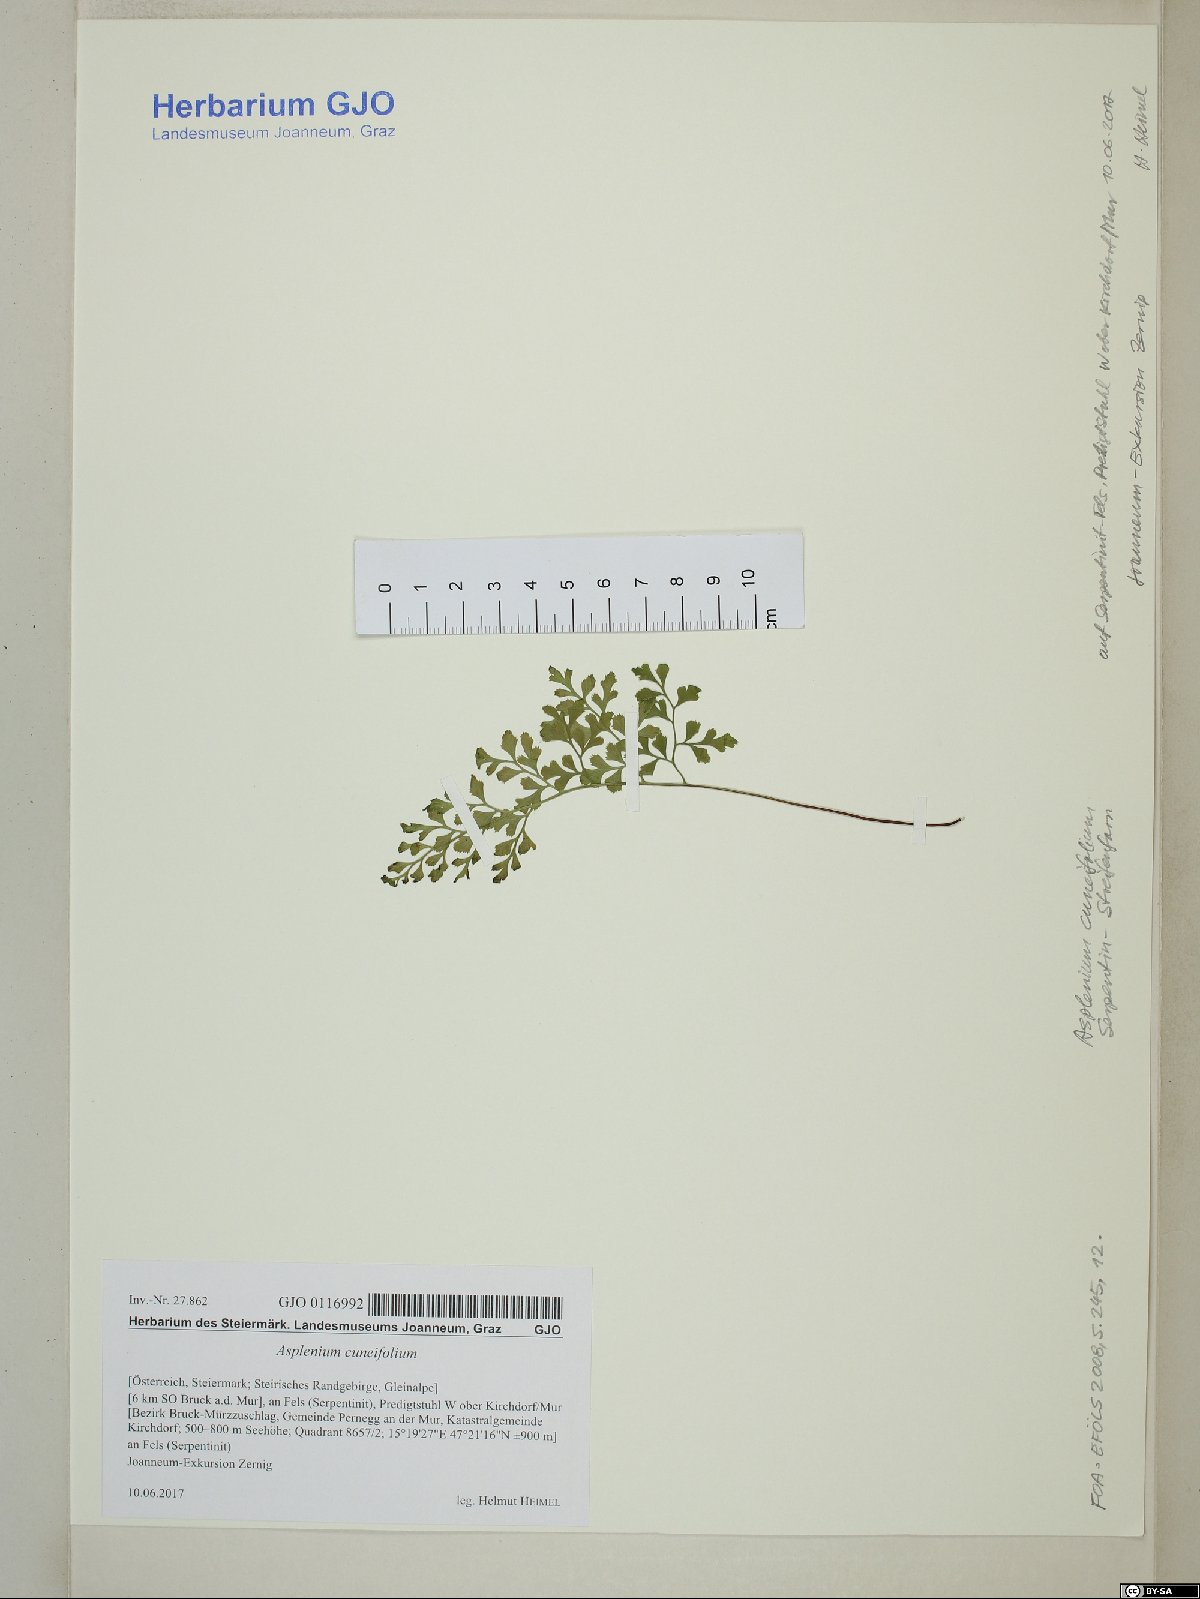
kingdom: Plantae
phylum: Tracheophyta
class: Polypodiopsida
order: Polypodiales
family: Aspleniaceae
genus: Asplenium
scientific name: Asplenium cuneifolium
